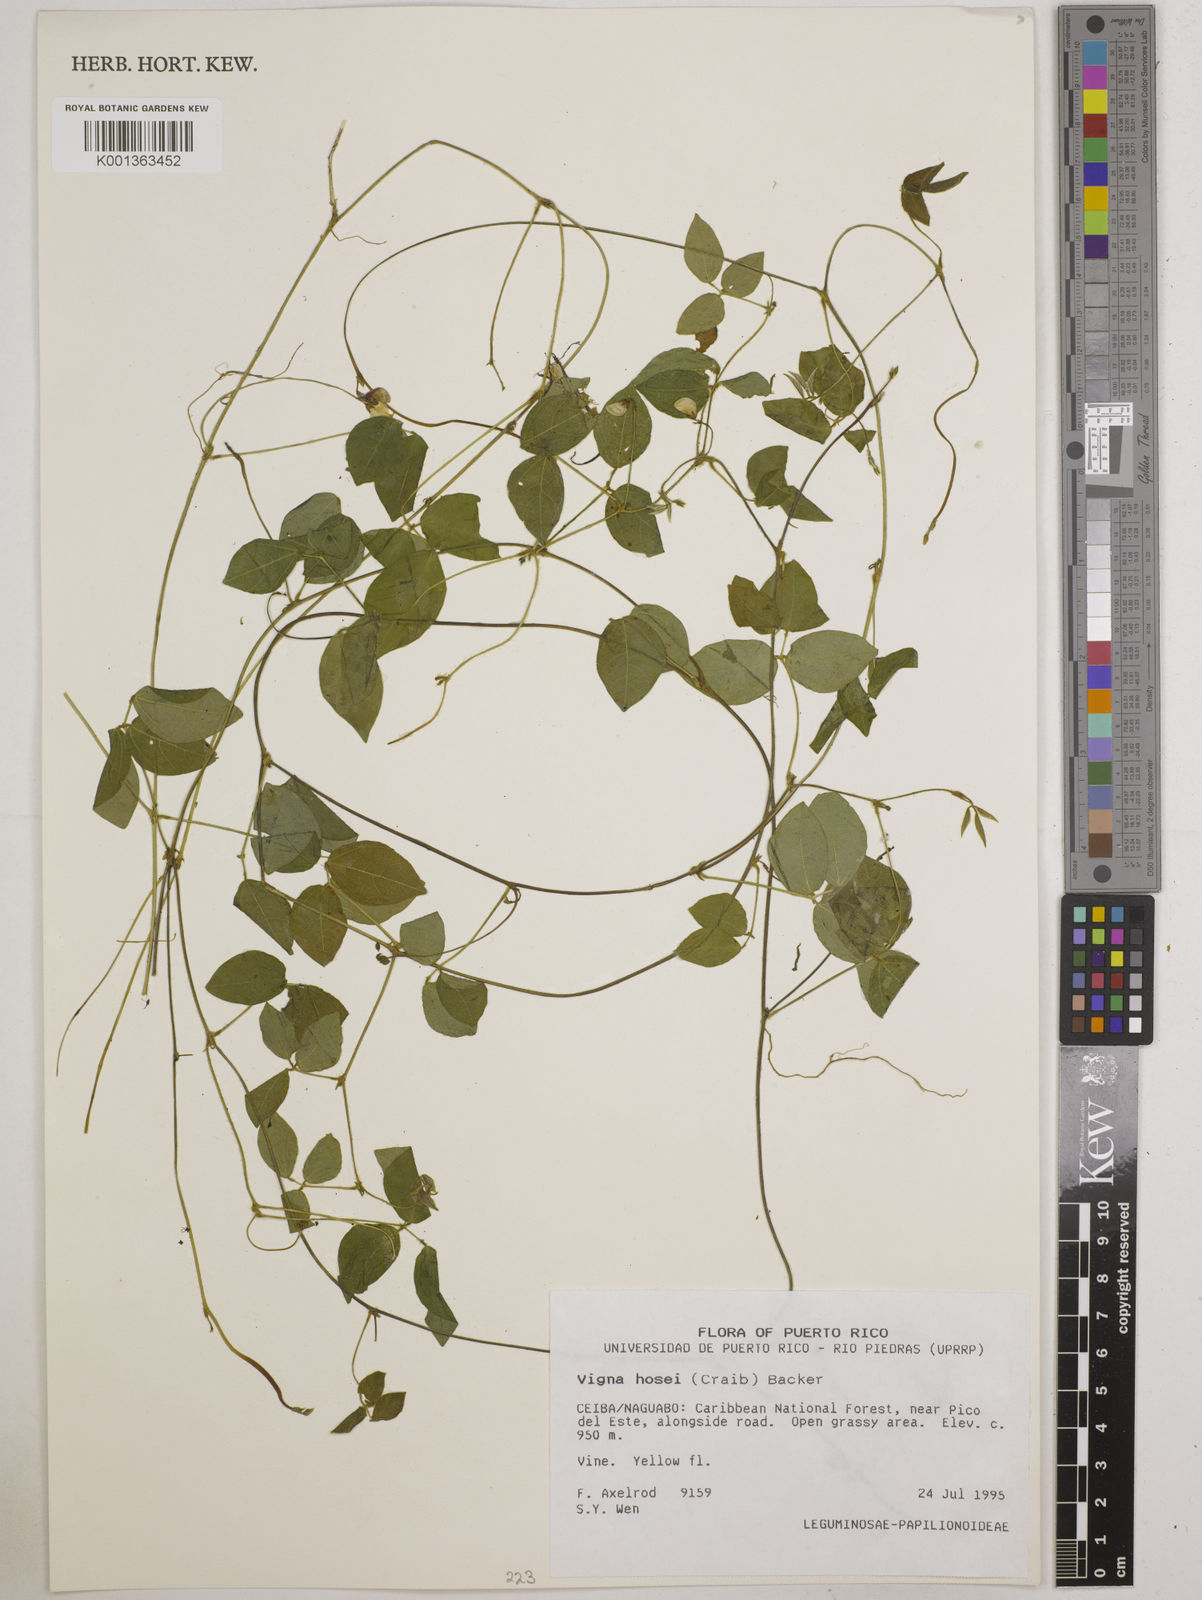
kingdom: Plantae
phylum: Tracheophyta
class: Magnoliopsida
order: Fabales
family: Fabaceae
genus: Vigna
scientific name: Vigna hosei
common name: Sarawak-bean
